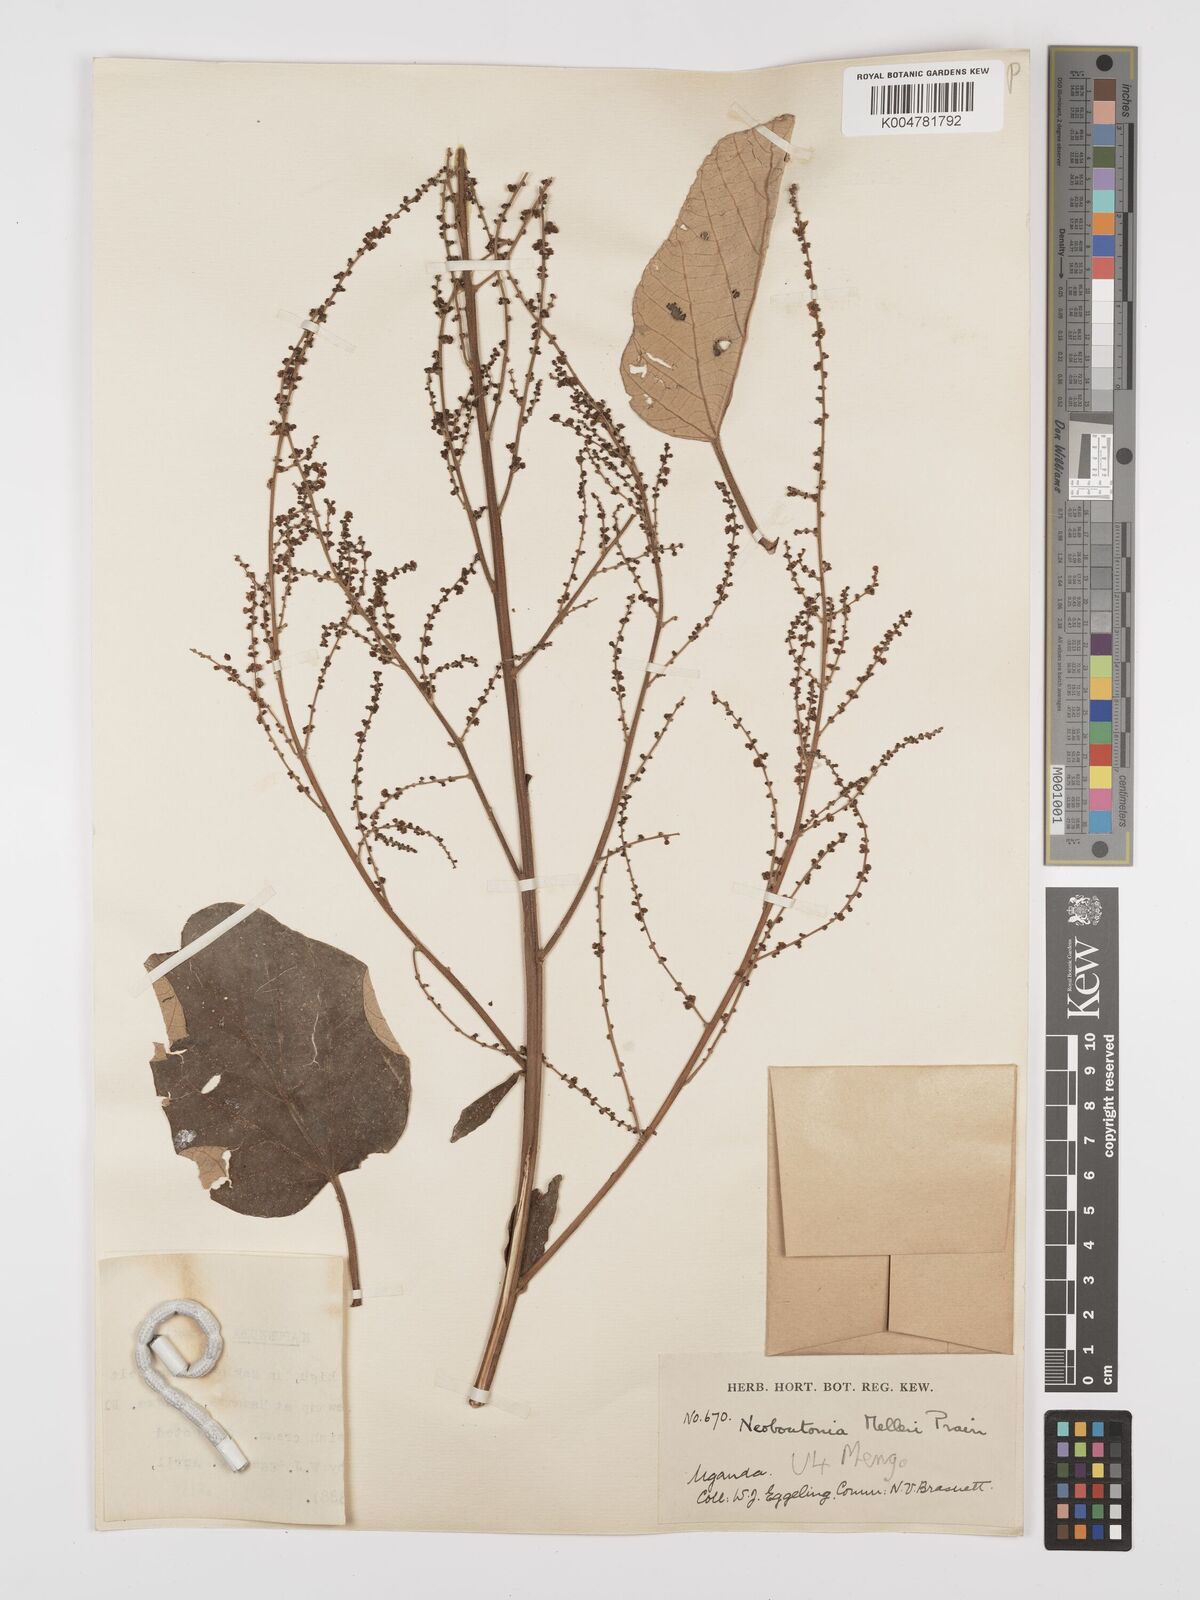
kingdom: Plantae
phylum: Tracheophyta
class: Magnoliopsida
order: Malpighiales
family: Euphorbiaceae
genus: Neoboutonia
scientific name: Neoboutonia melleri
